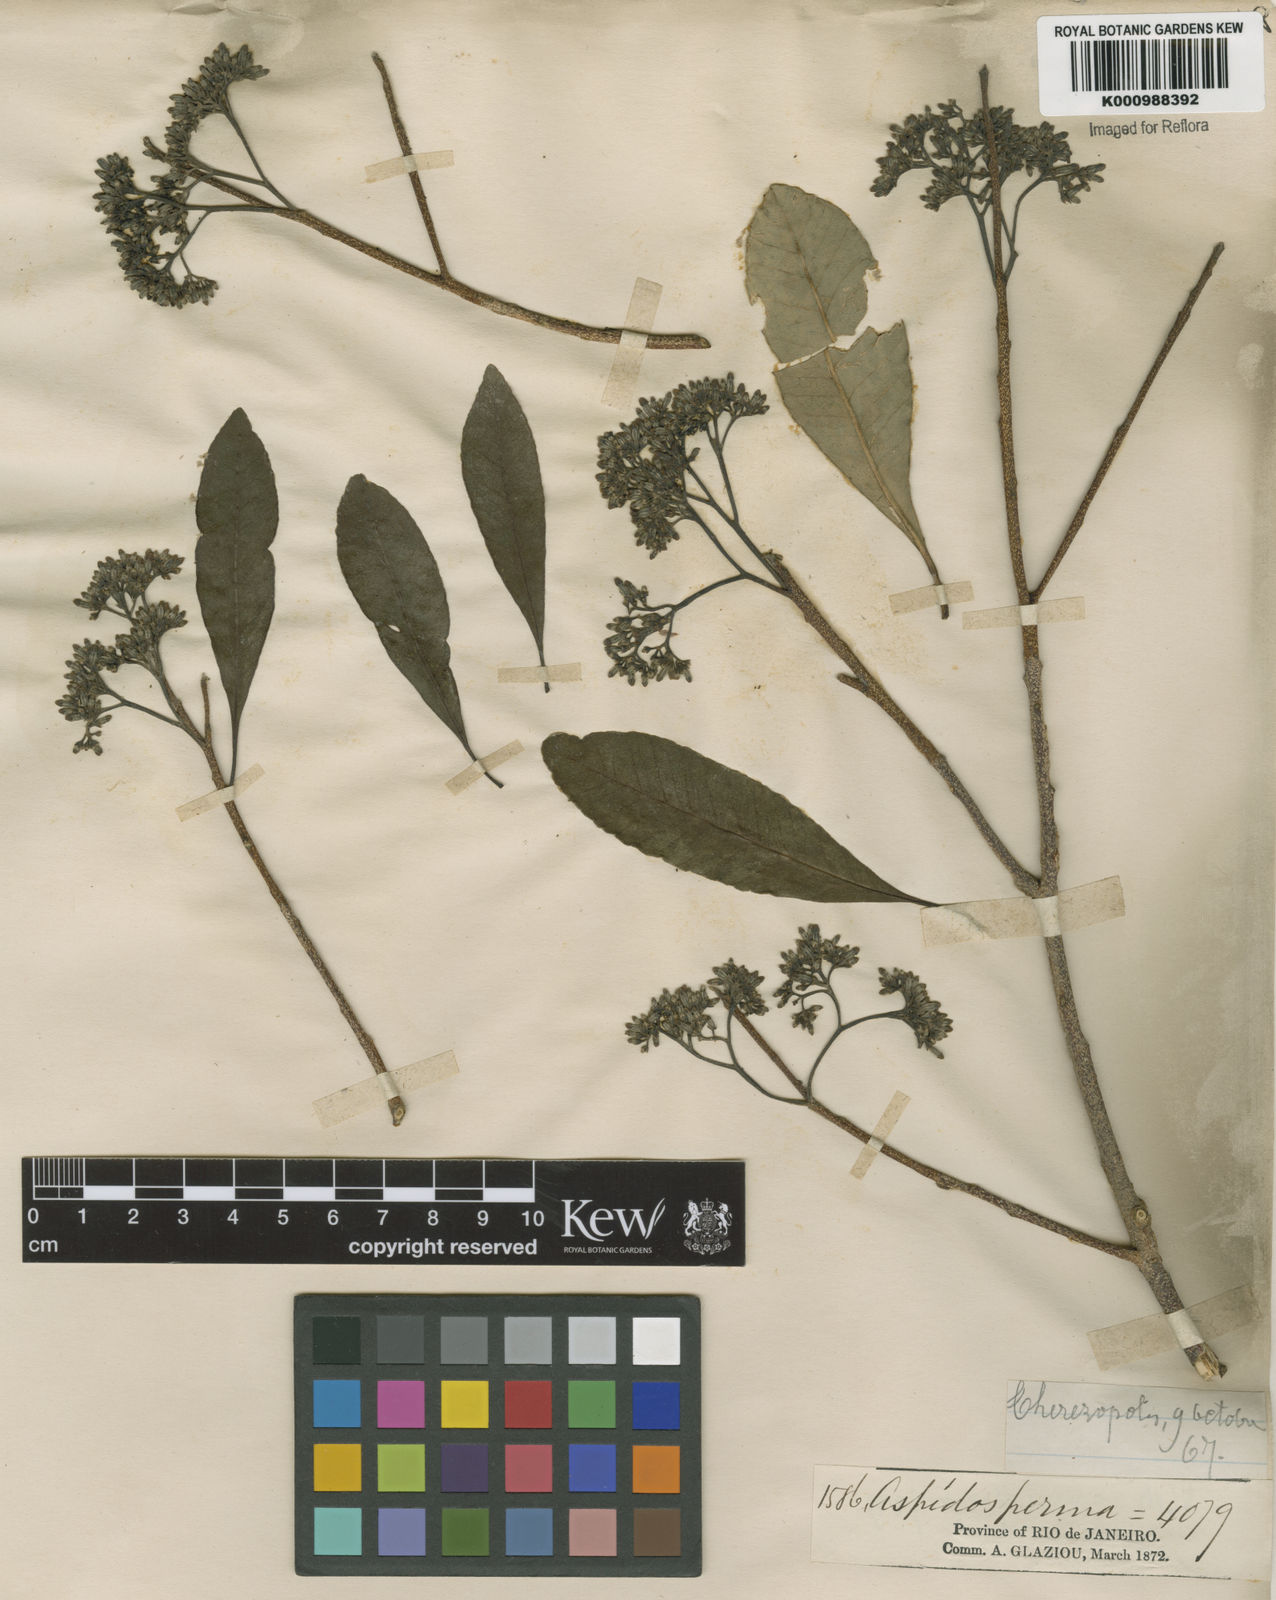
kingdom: Plantae
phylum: Tracheophyta
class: Magnoliopsida
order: Gentianales
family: Apocynaceae
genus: Aspidosperma
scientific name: Aspidosperma
